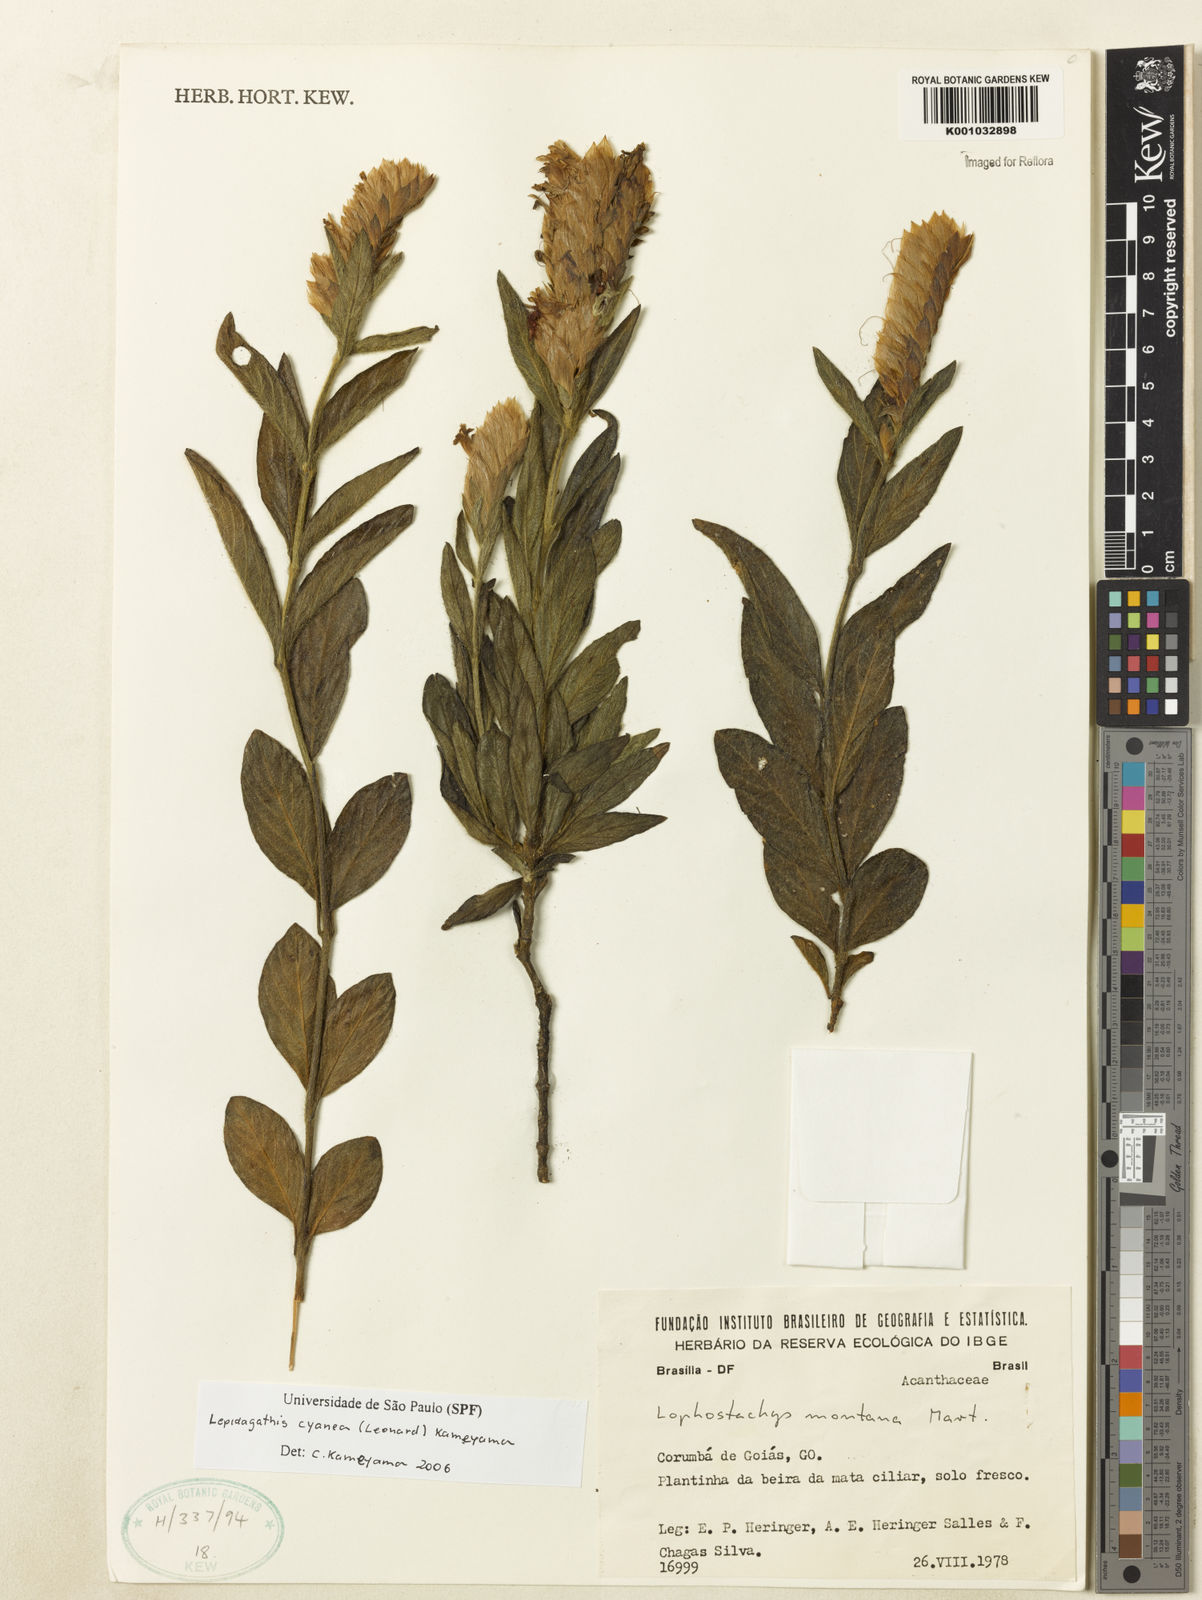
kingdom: Plantae
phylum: Tracheophyta
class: Magnoliopsida
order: Lamiales
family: Acanthaceae
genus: Lepidagathis
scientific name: Lepidagathis cyanea
